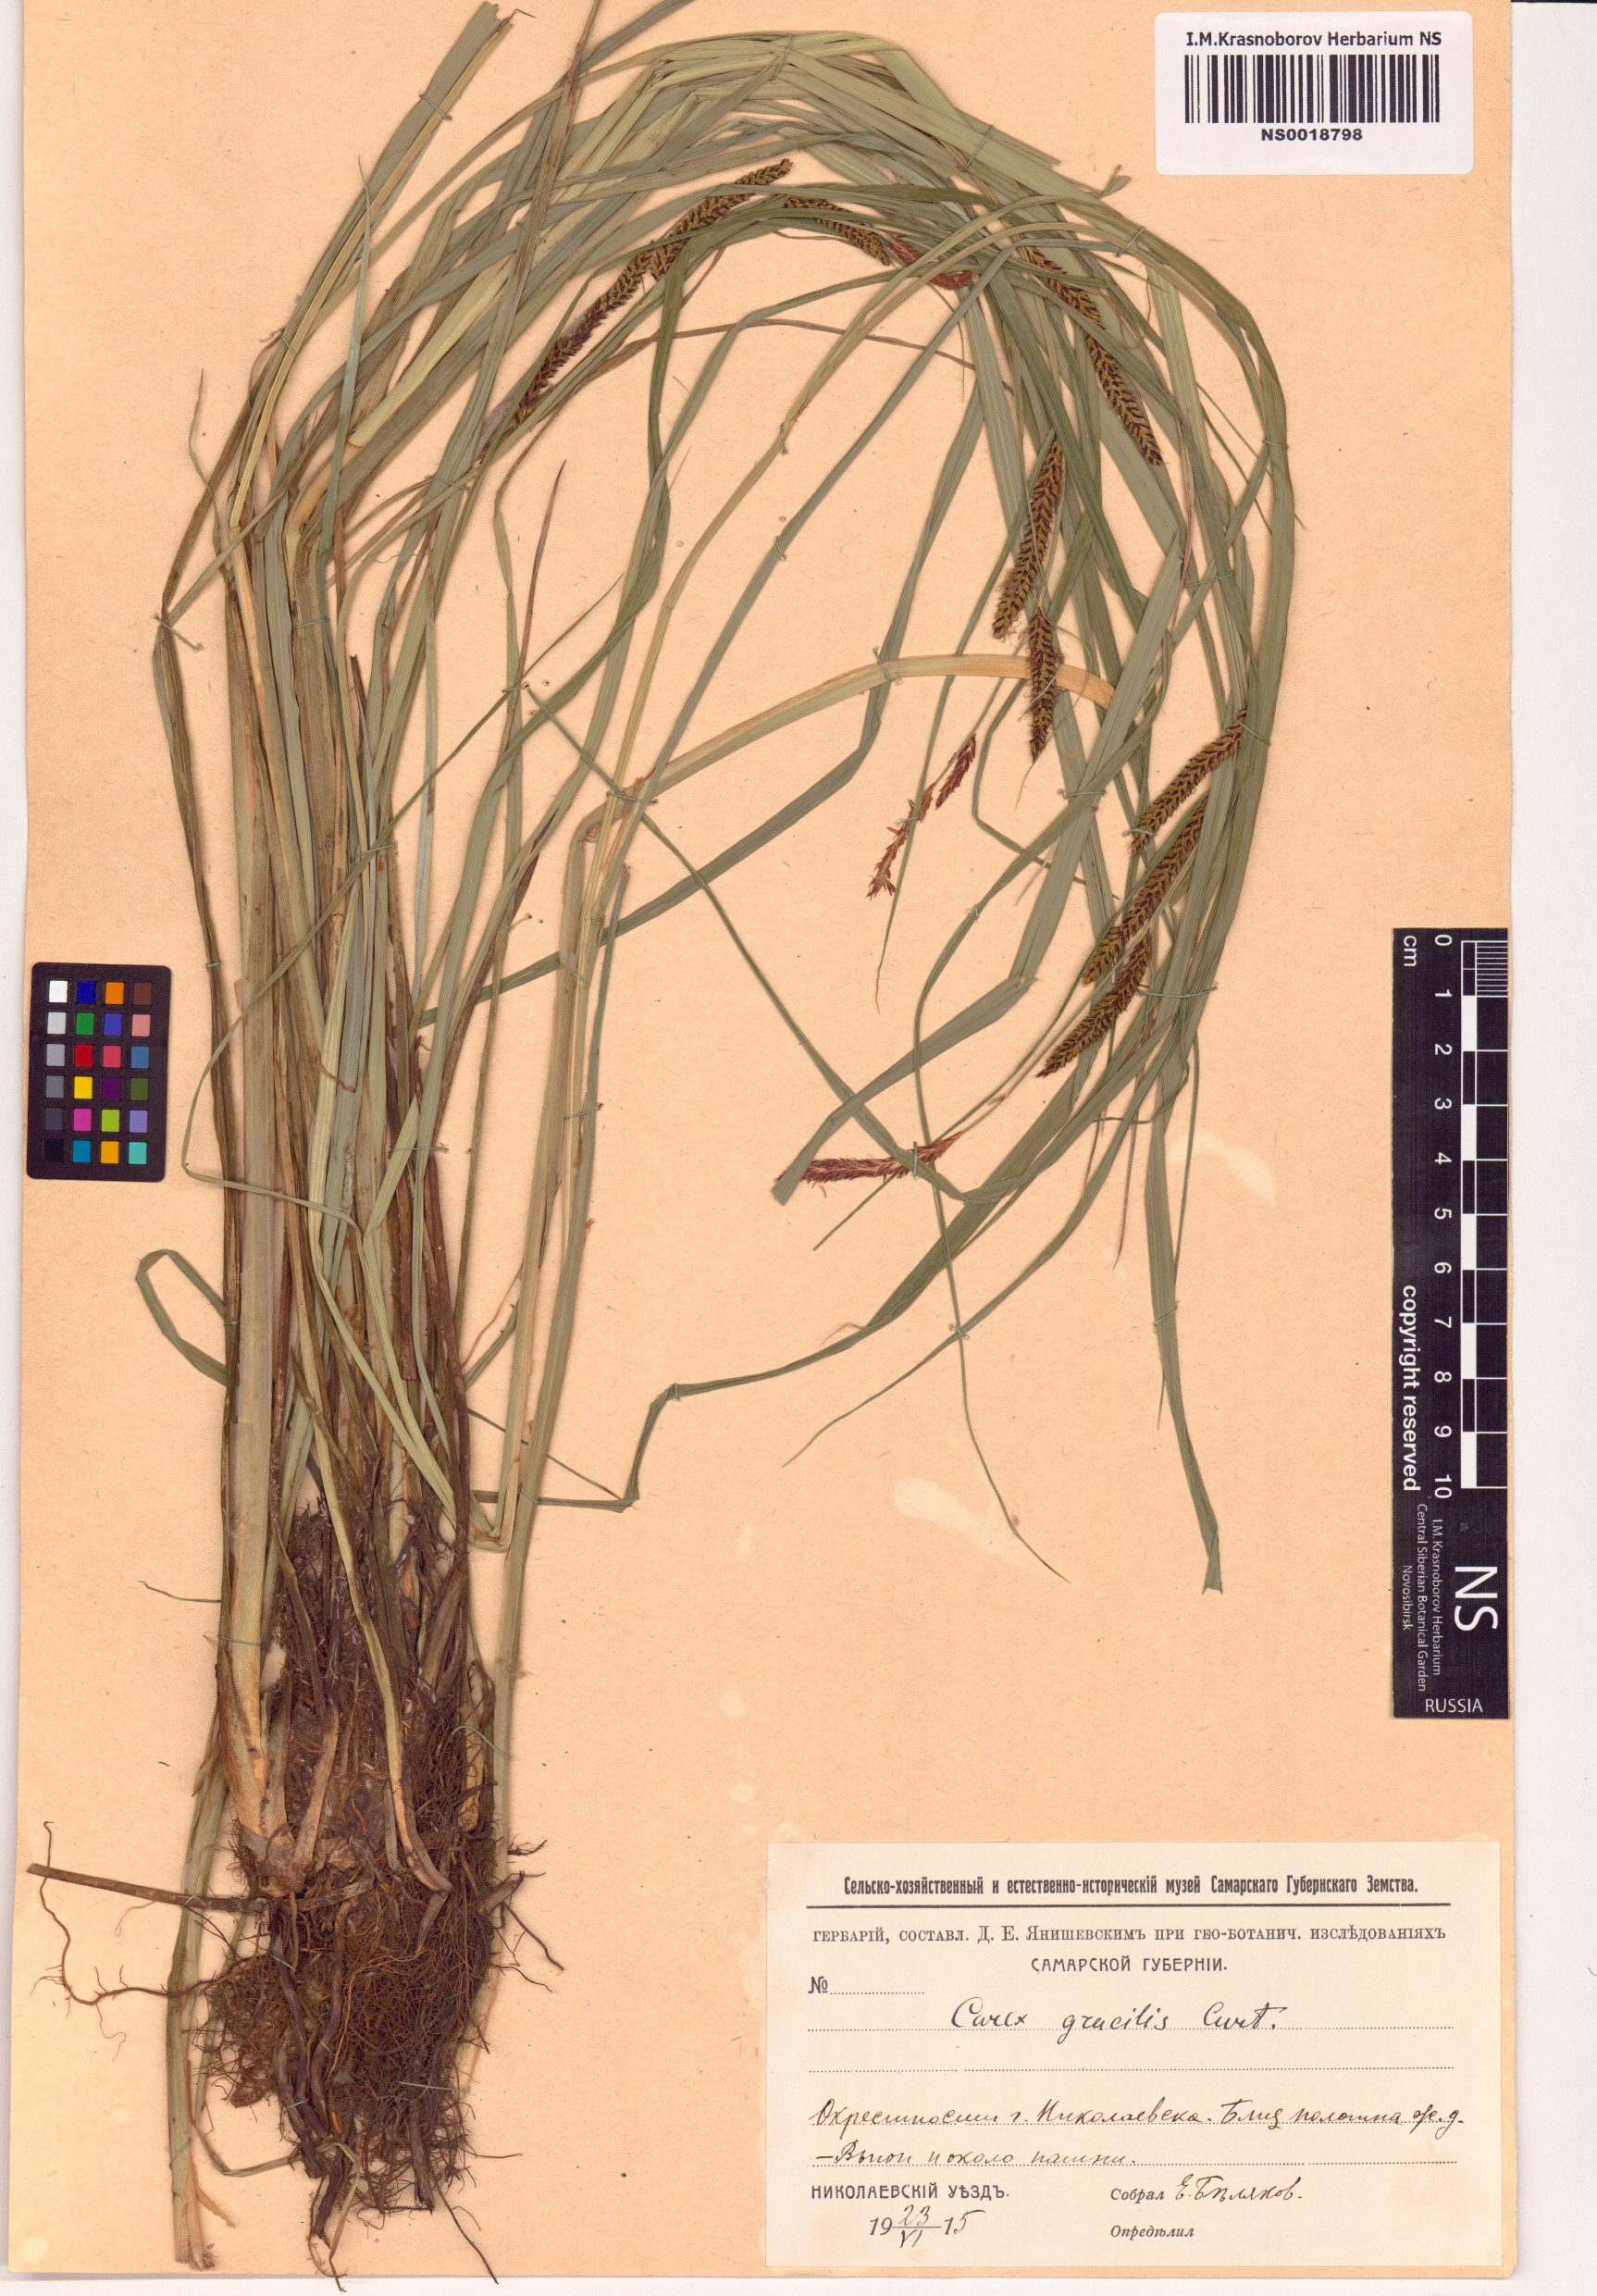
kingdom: Plantae
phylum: Tracheophyta
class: Liliopsida
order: Poales
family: Cyperaceae
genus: Carex
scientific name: Carex acuta
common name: Slender tufted-sedge
